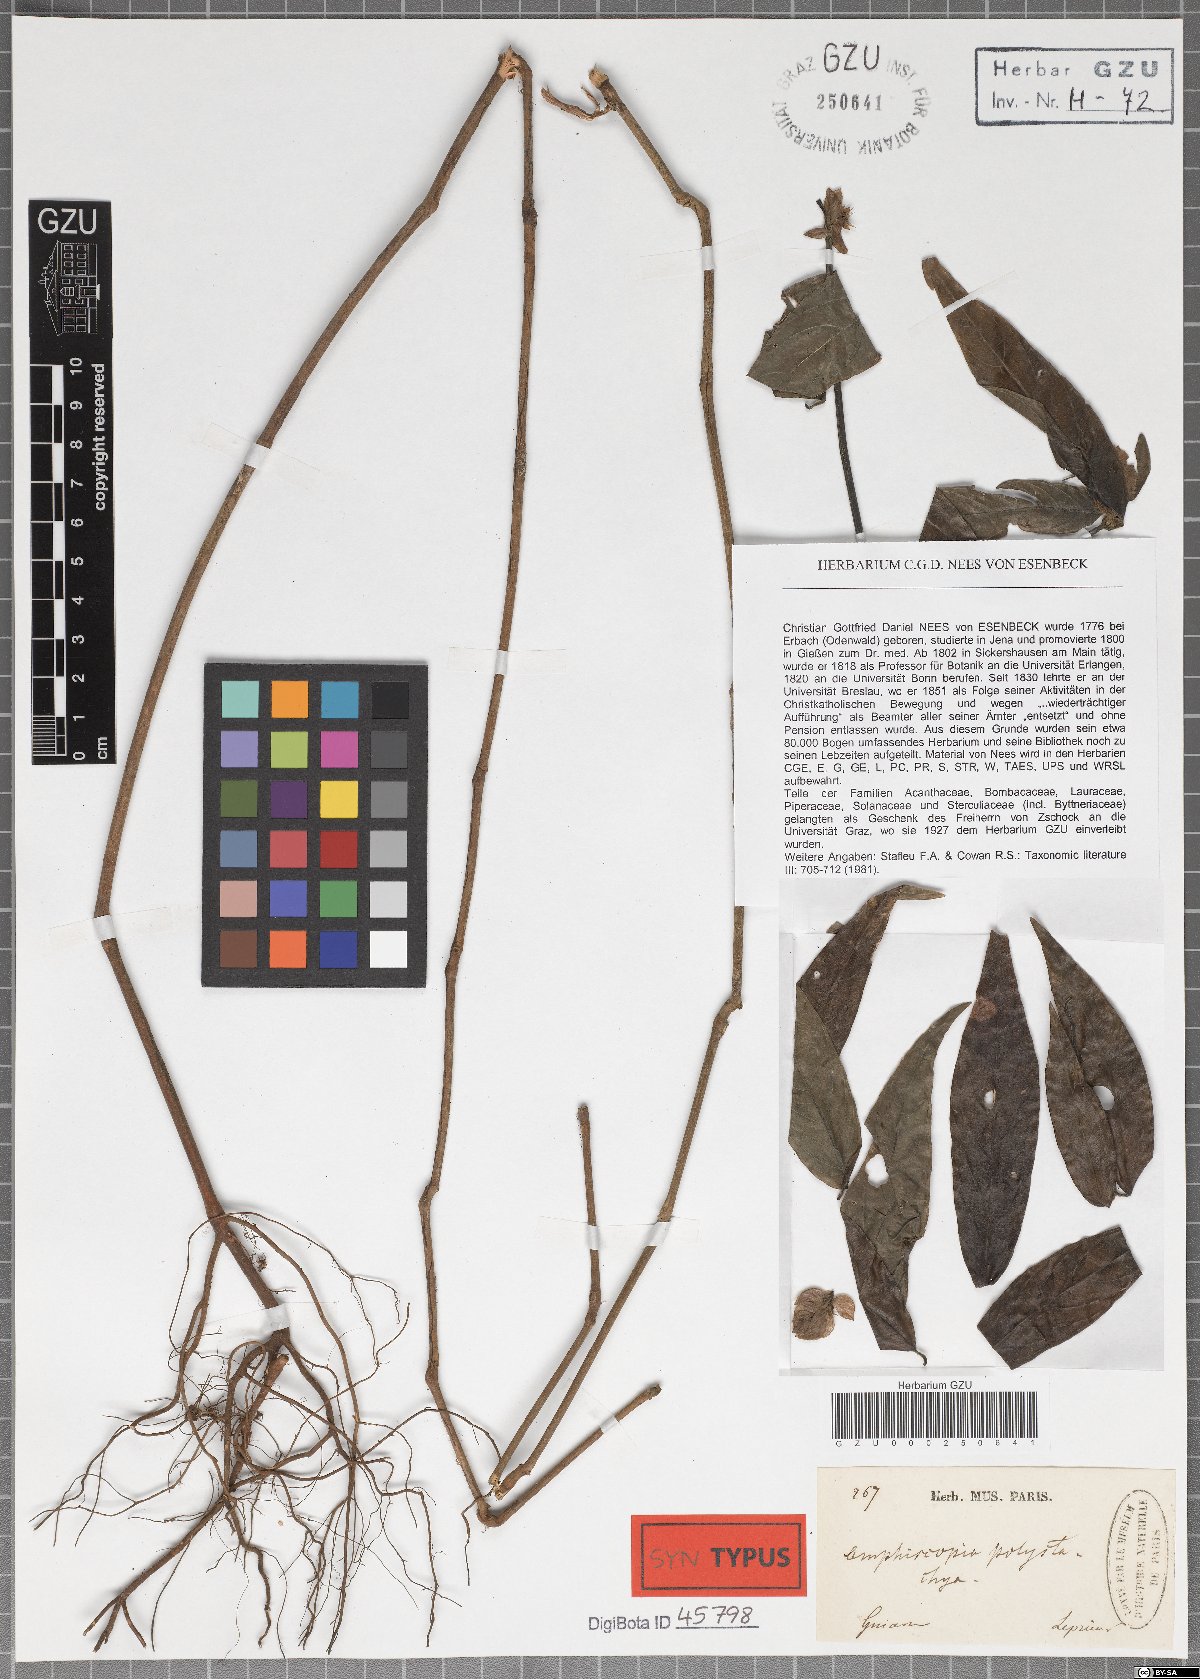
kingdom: Plantae
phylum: Tracheophyta
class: Magnoliopsida
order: Lamiales
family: Acanthaceae
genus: Justicia
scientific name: Justicia polystachya
